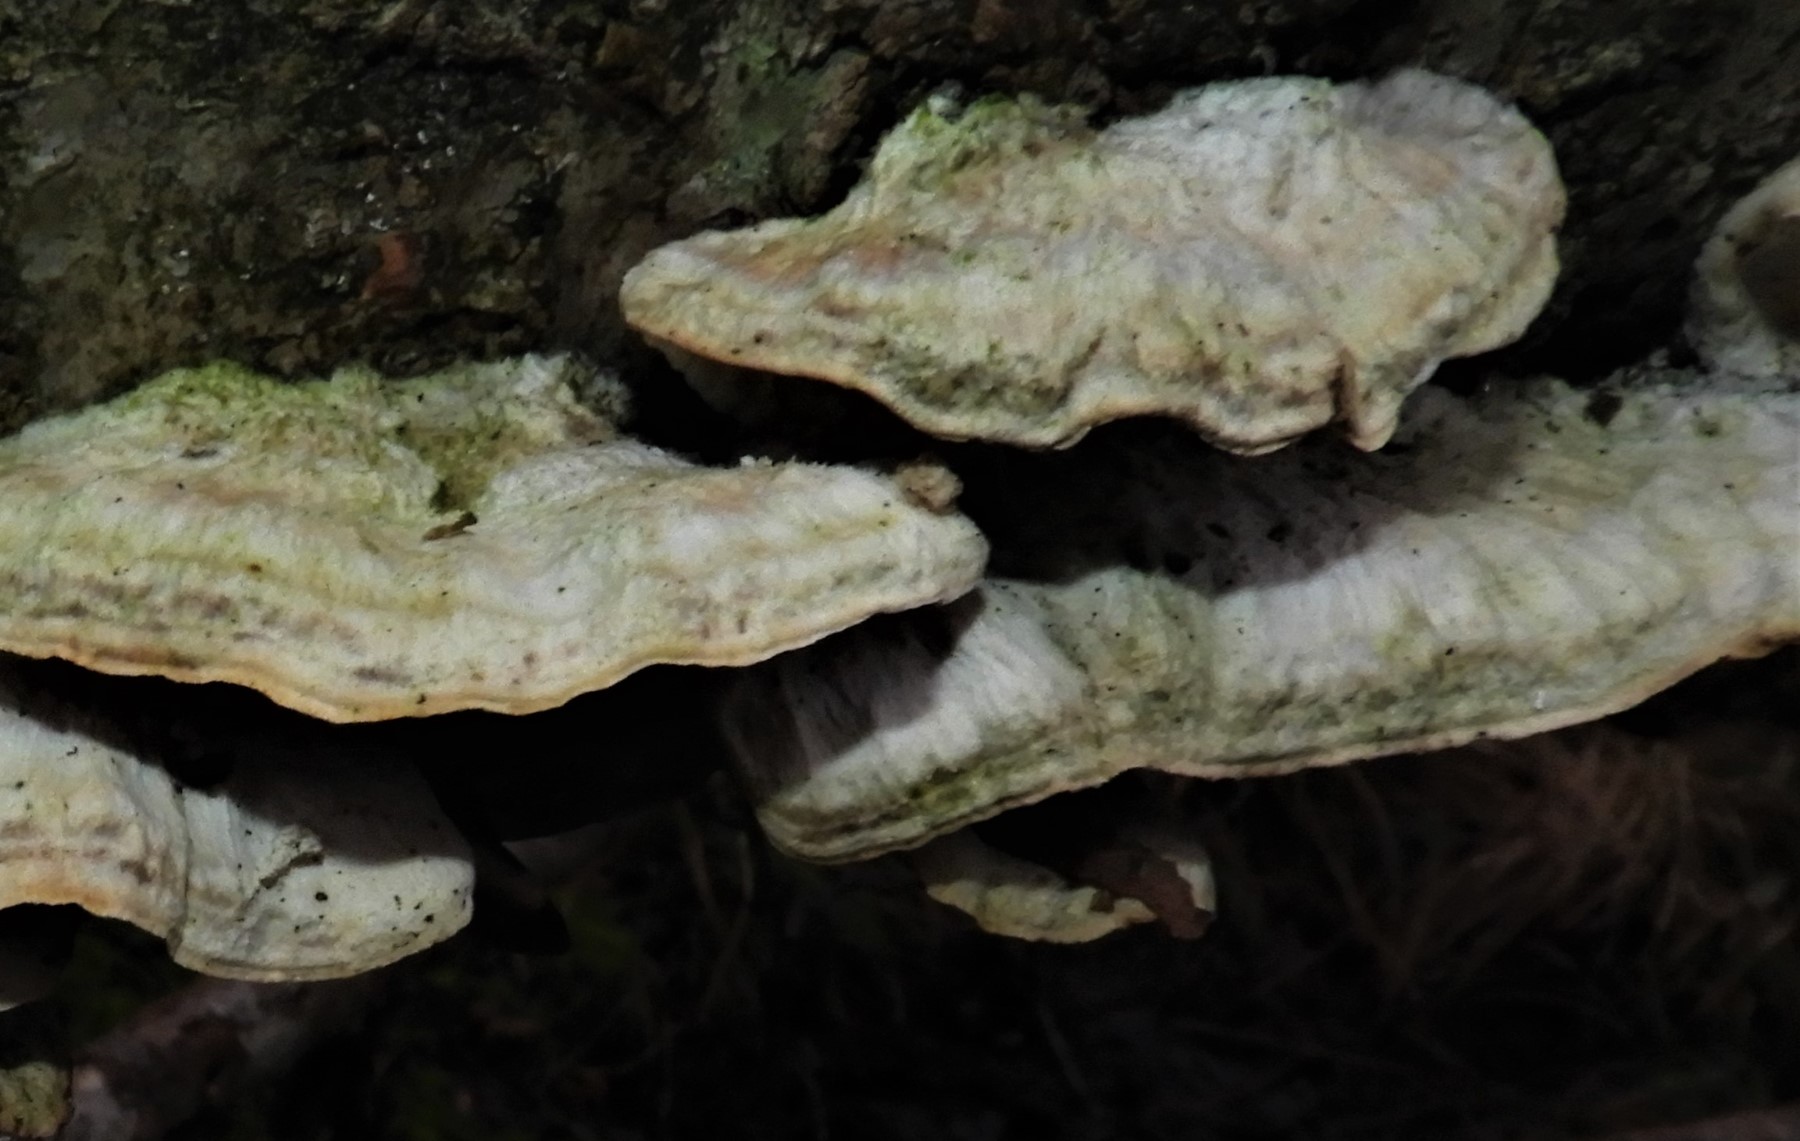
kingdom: Fungi
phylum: Basidiomycota
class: Agaricomycetes
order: Polyporales
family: Polyporaceae
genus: Trametes
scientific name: Trametes hirsuta
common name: håret læderporesvamp
